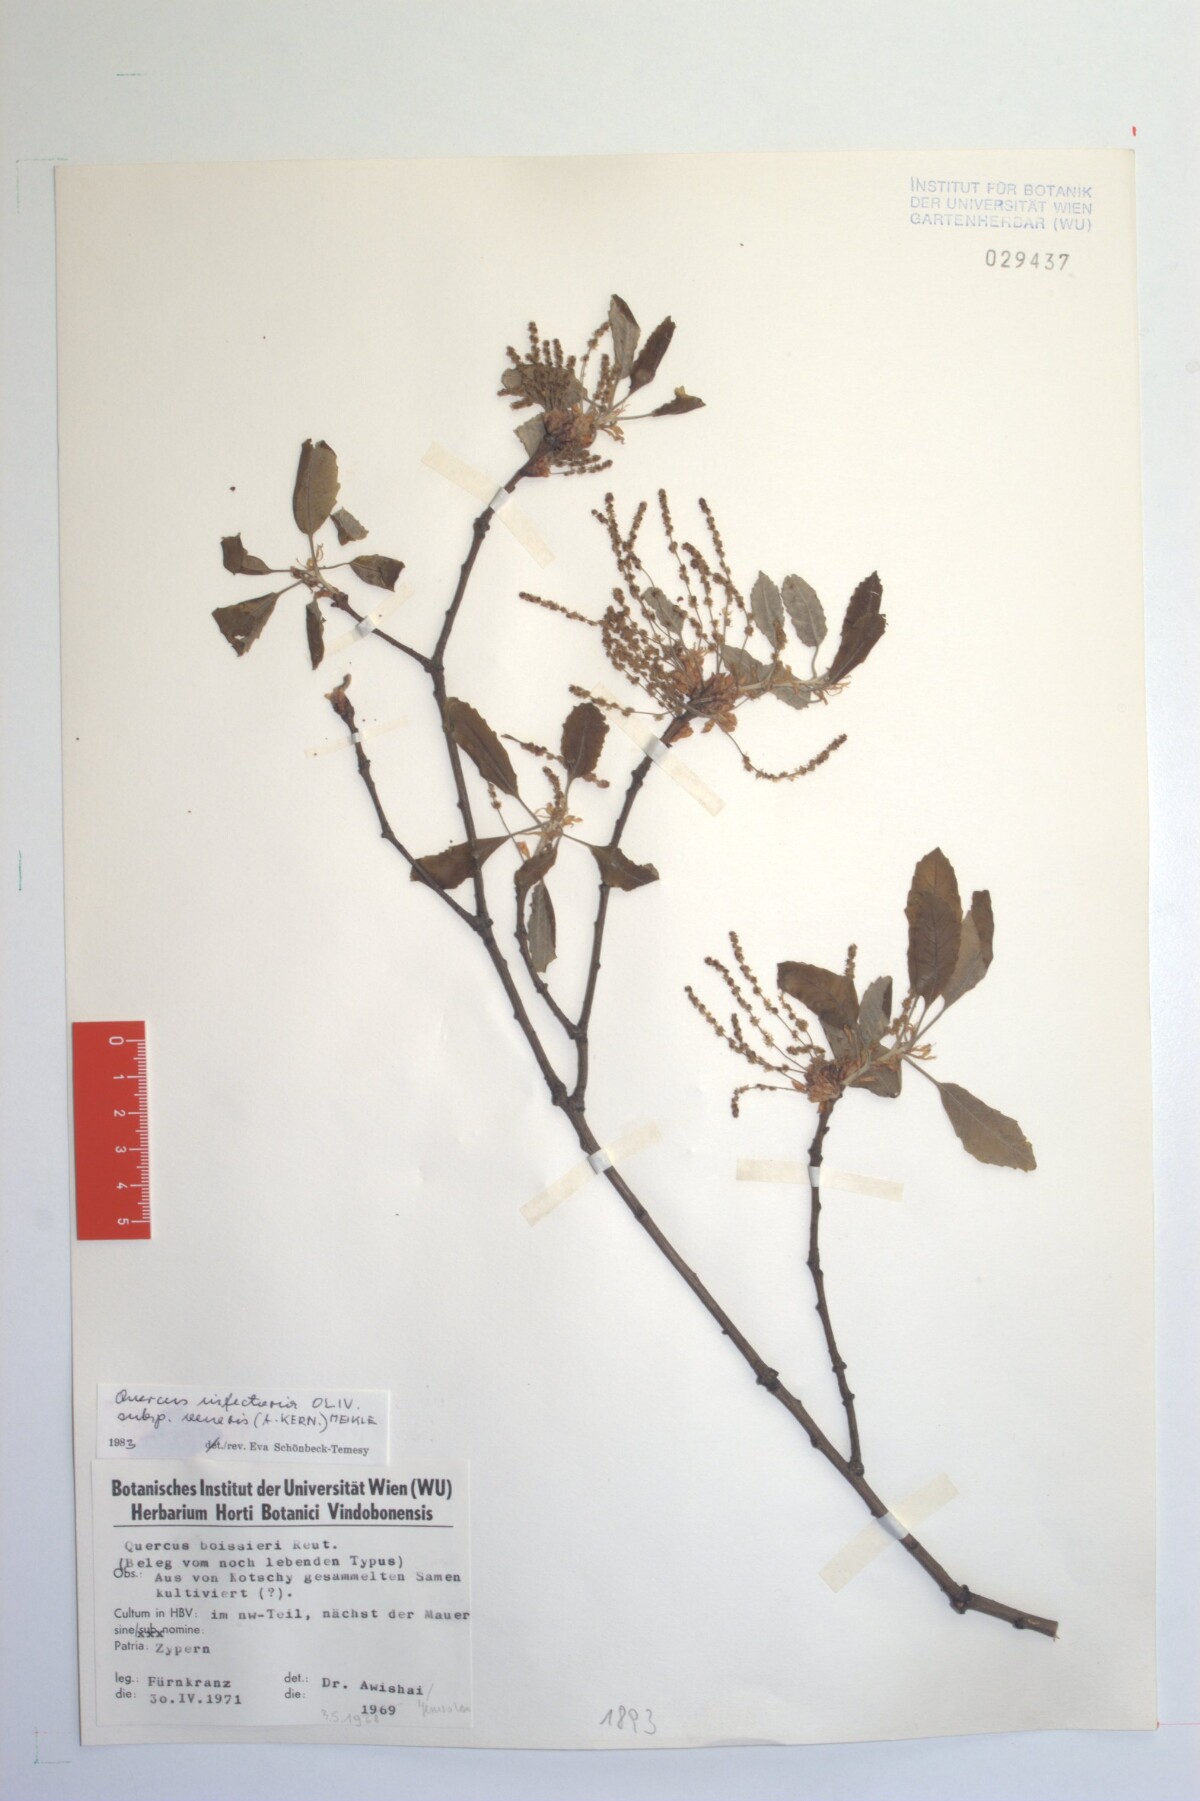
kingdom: Plantae
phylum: Tracheophyta
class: Magnoliopsida
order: Fagales
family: Fagaceae
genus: Quercus
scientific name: Quercus infectoria
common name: Aleppo oak
